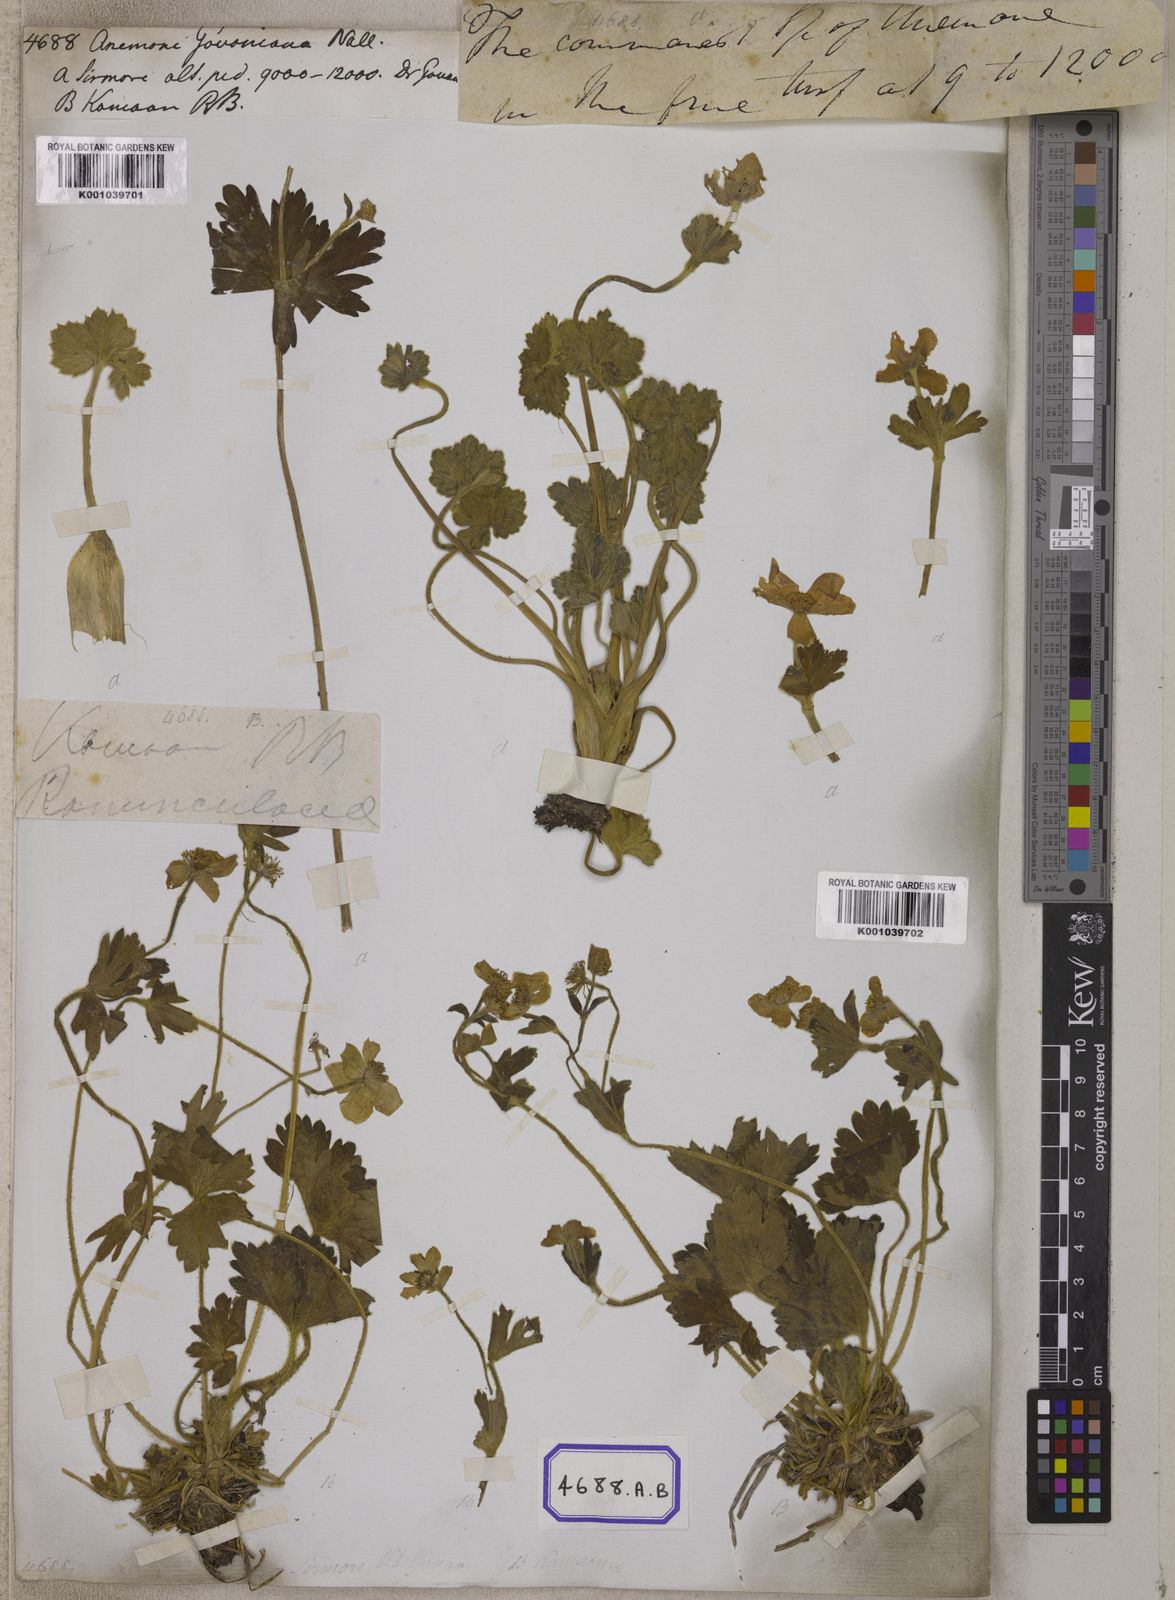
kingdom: Plantae
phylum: Tracheophyta
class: Magnoliopsida
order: Ranunculales
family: Ranunculaceae
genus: Anemone
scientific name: Anemone
